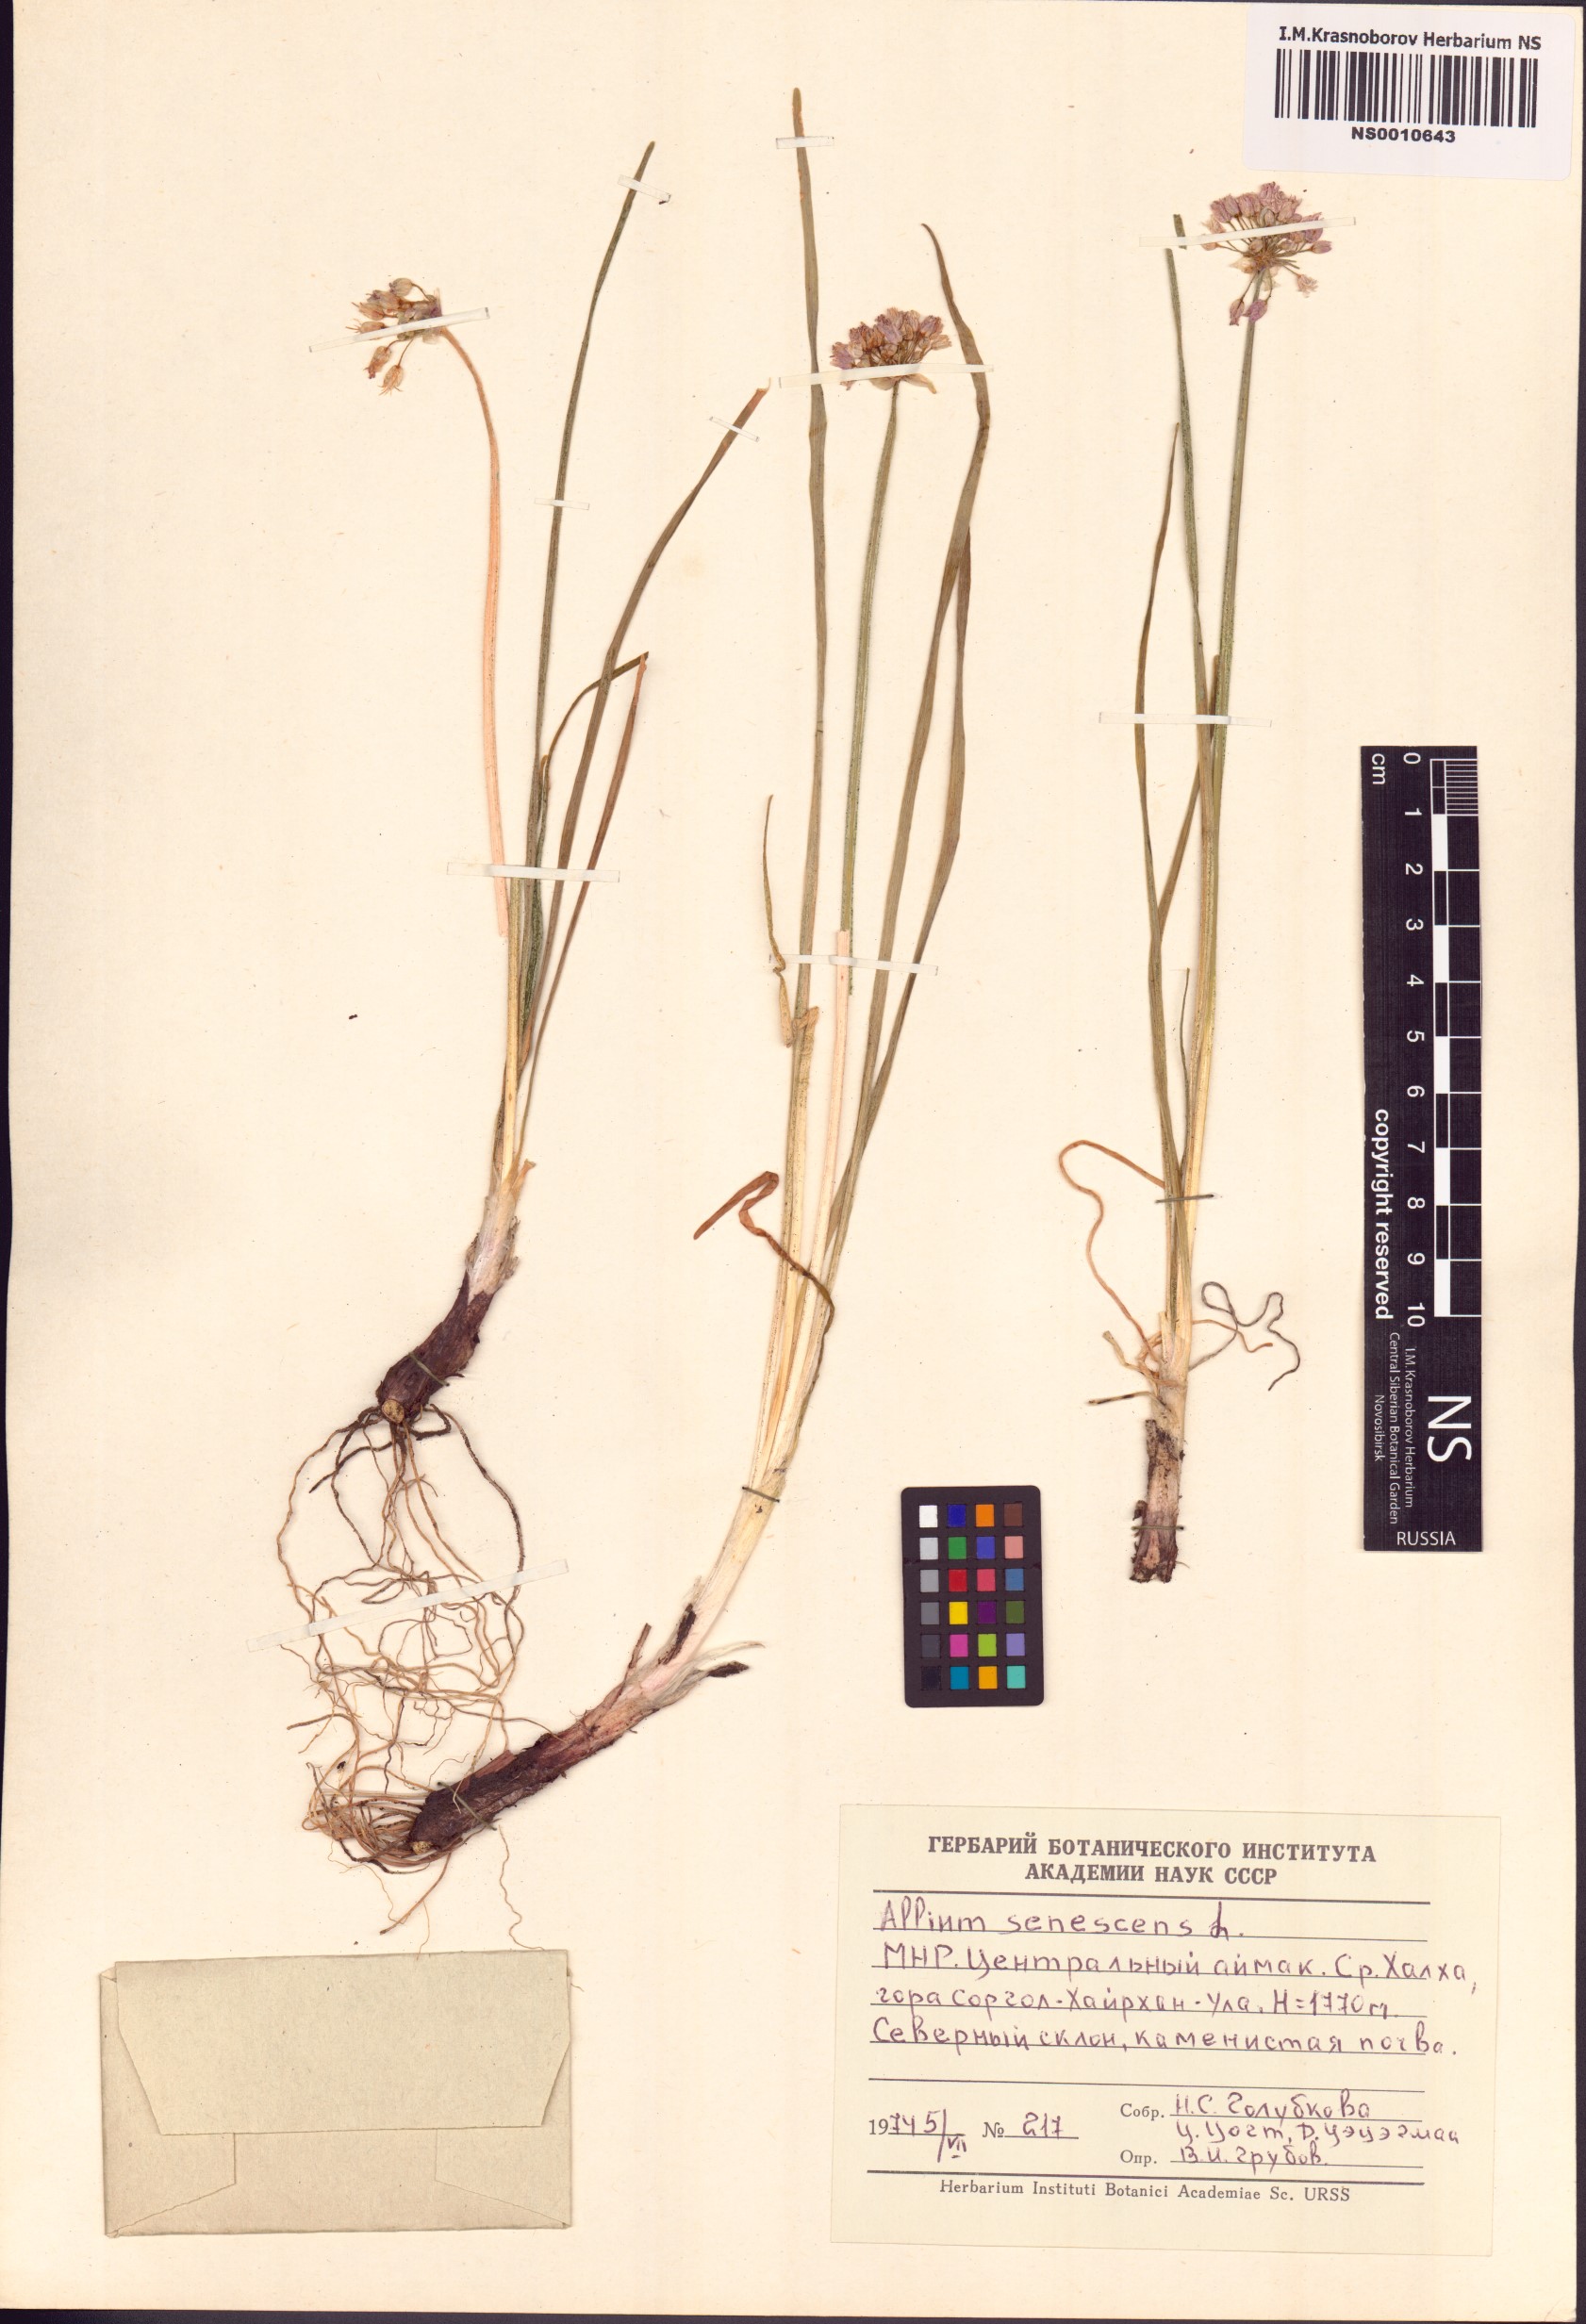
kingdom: Plantae
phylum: Tracheophyta
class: Liliopsida
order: Asparagales
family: Amaryllidaceae
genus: Allium
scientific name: Allium senescens
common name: German garlic
